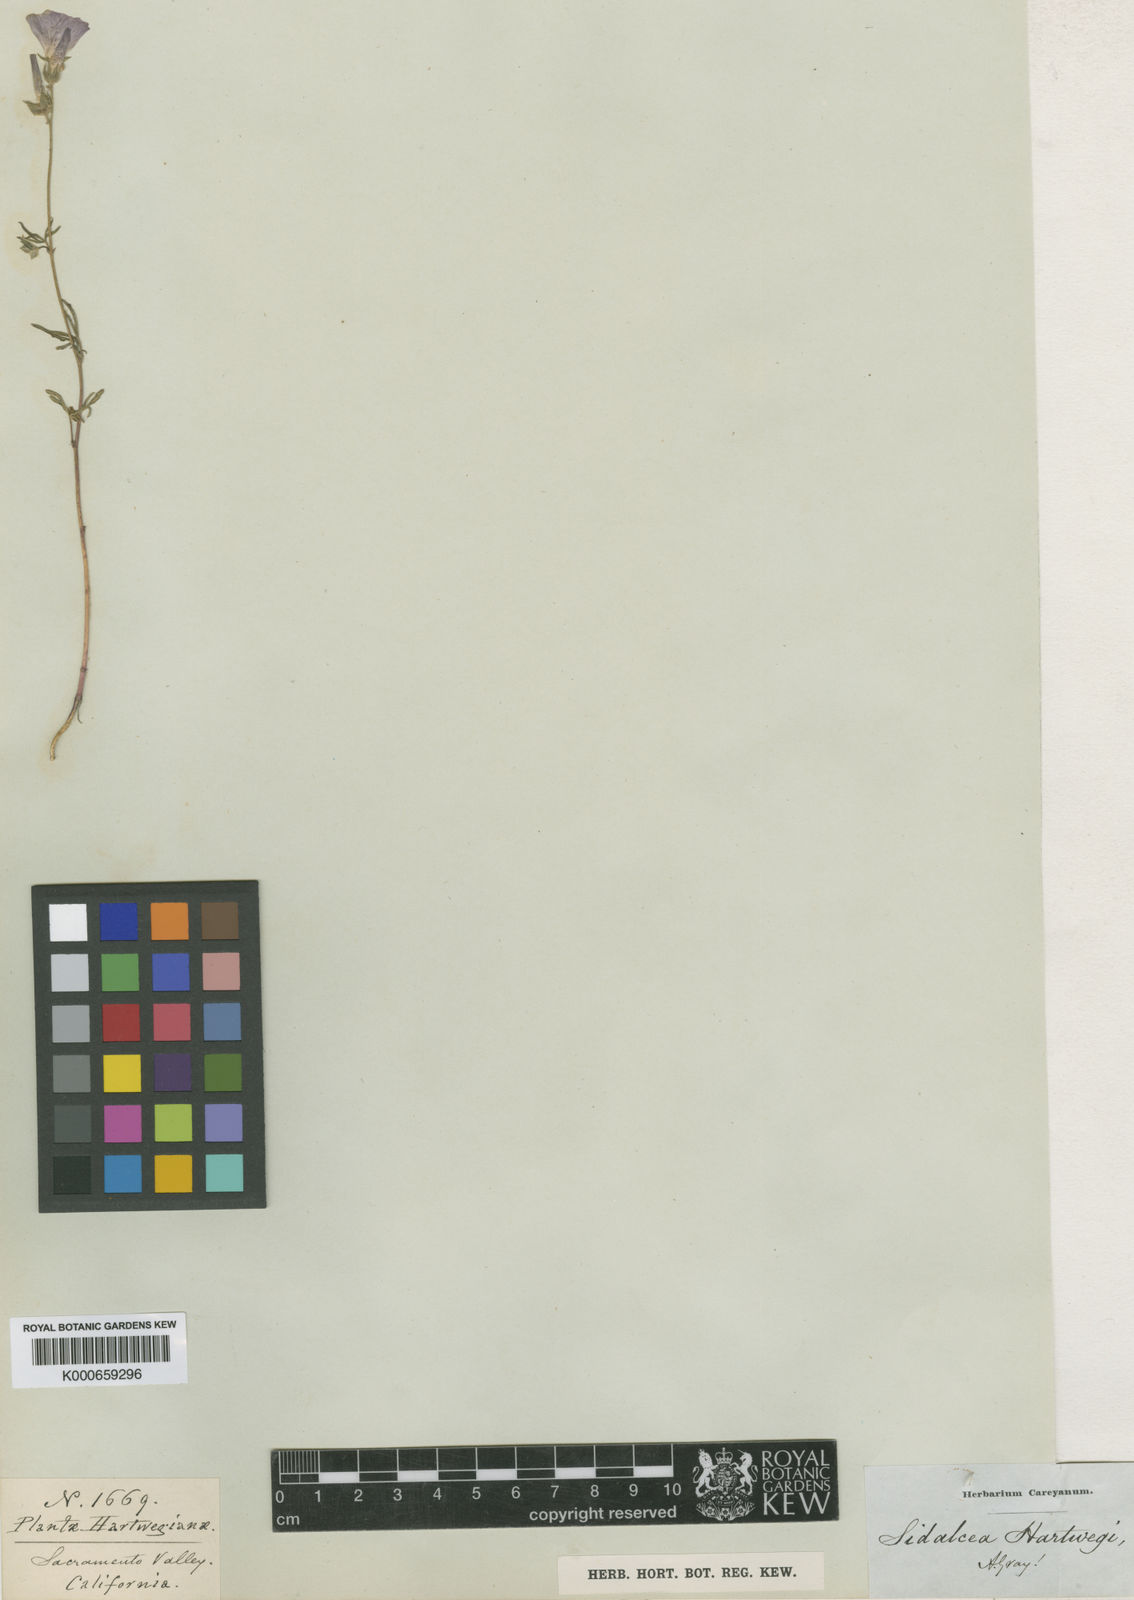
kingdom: Plantae
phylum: Tracheophyta
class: Magnoliopsida
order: Malvales
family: Malvaceae
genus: Sidalcea
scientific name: Sidalcea hartwegii
